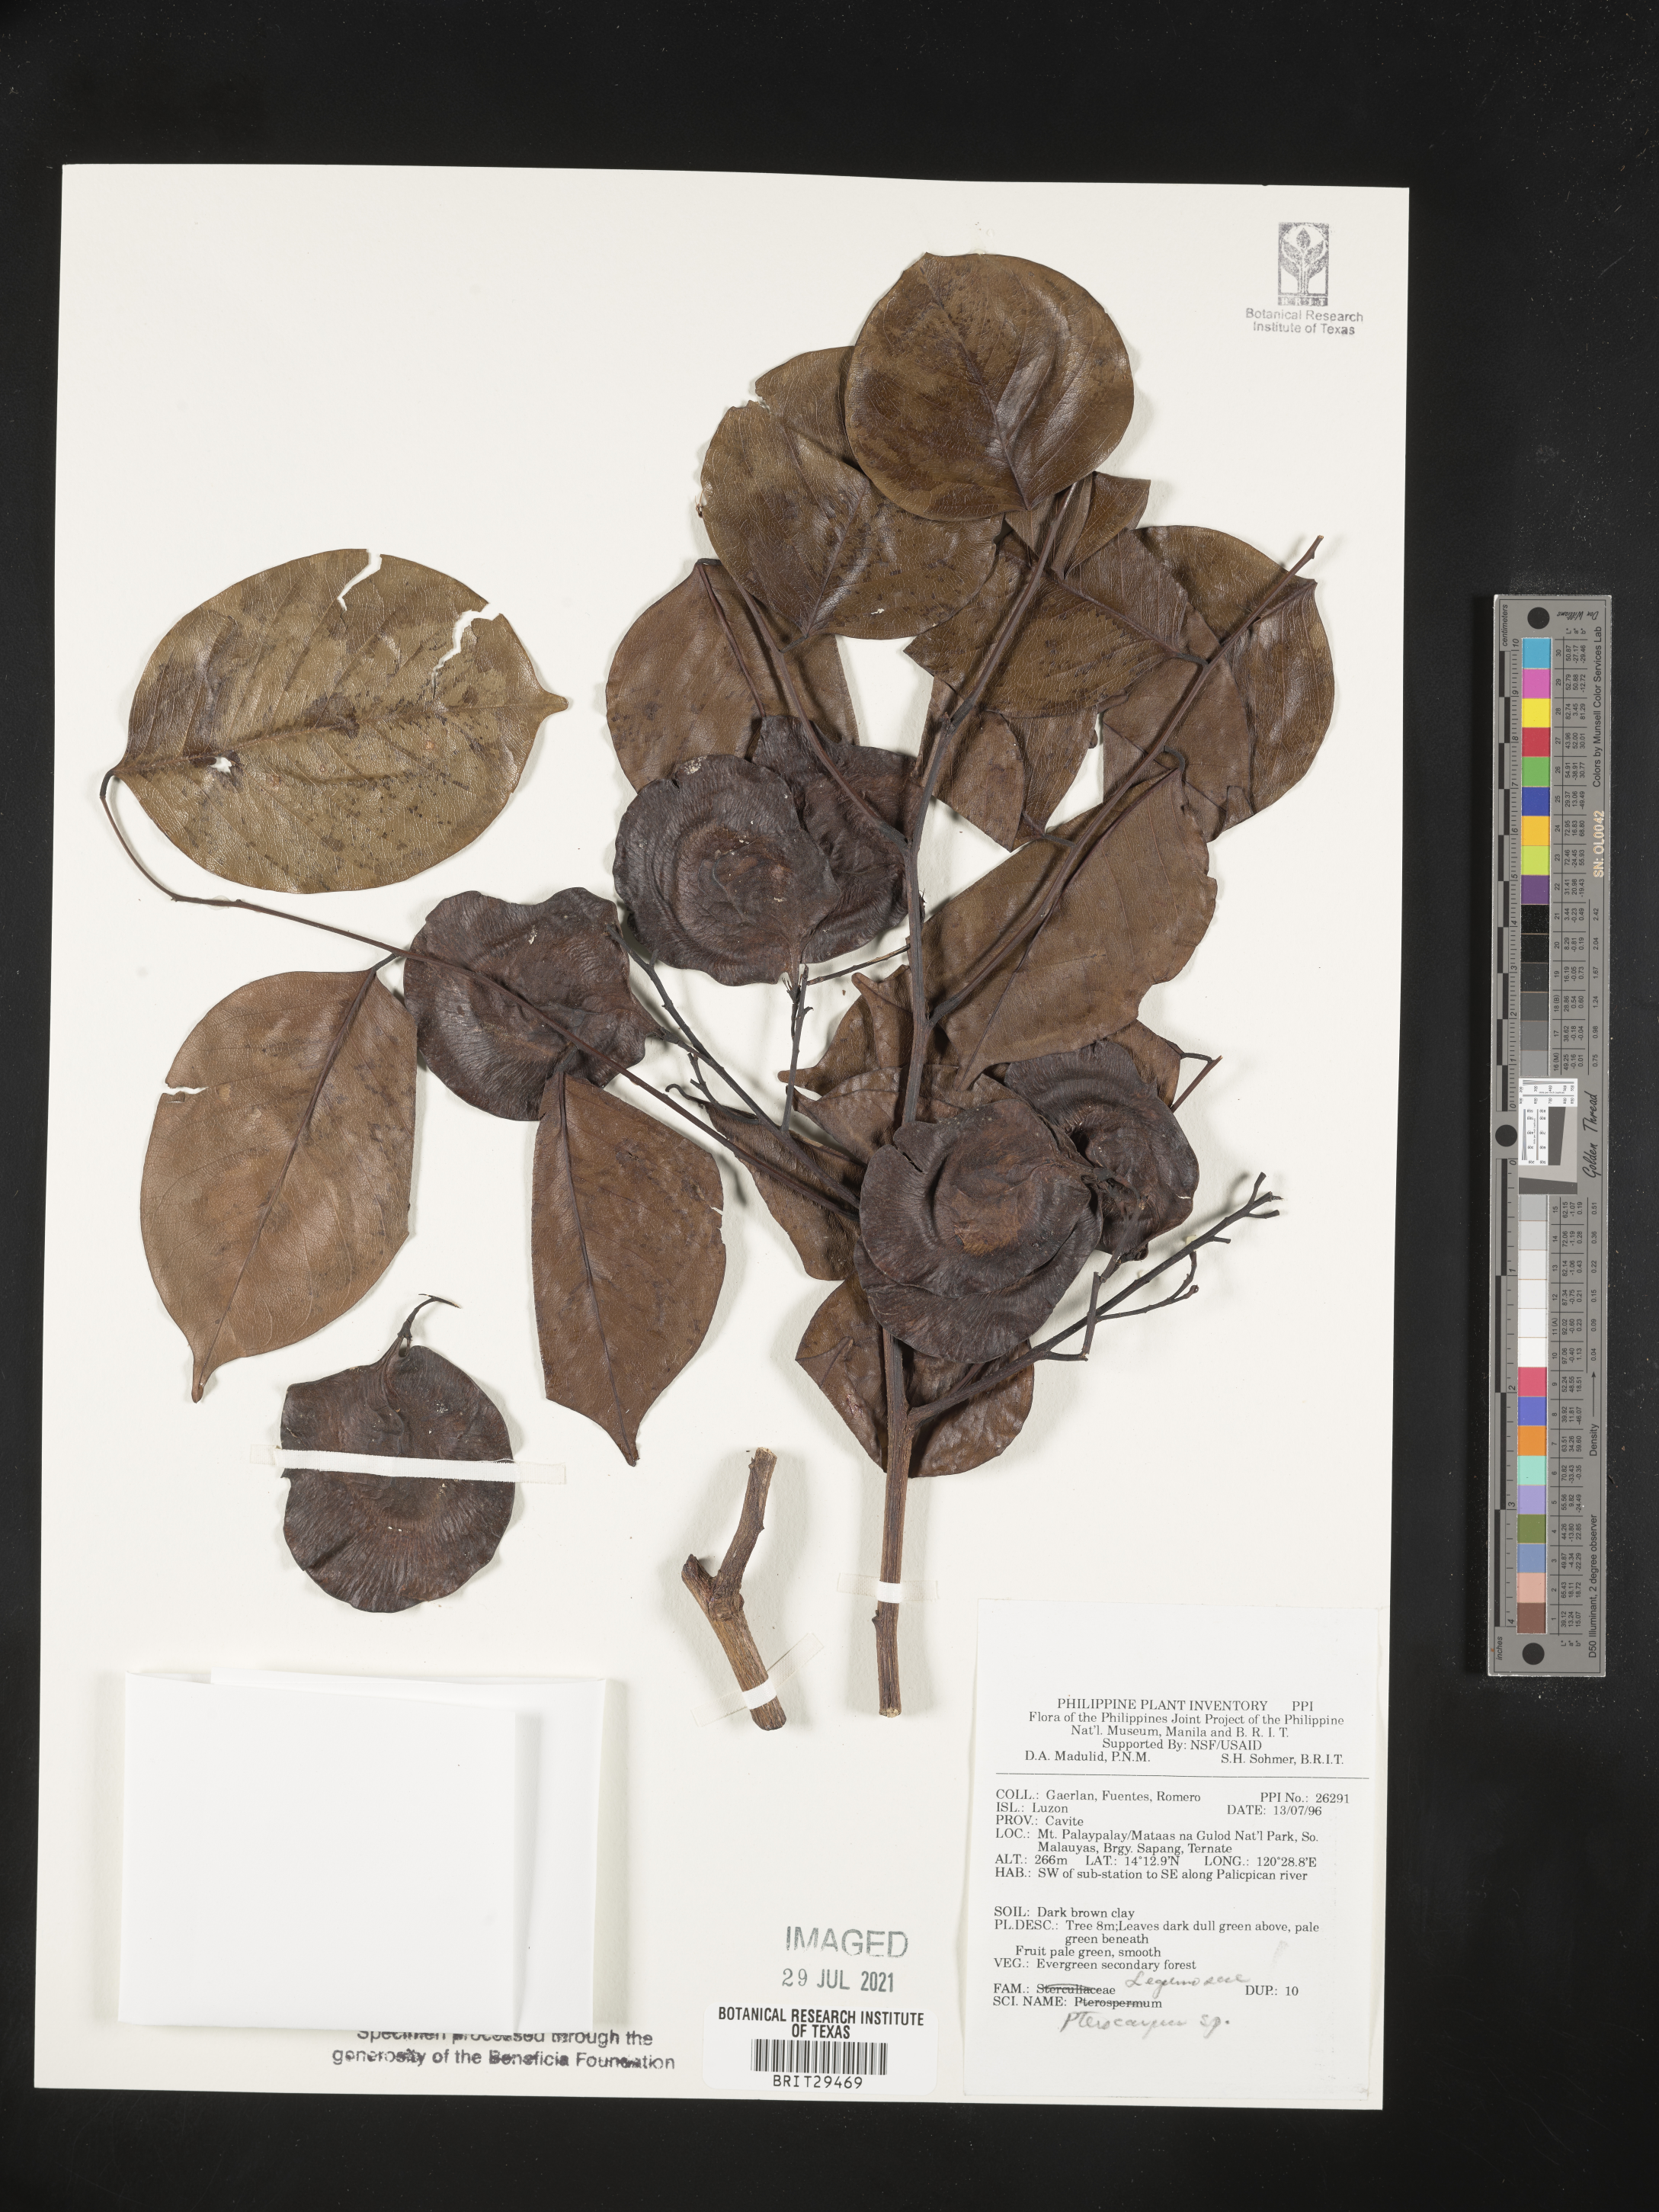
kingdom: Plantae
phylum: Tracheophyta
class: Magnoliopsida
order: Fabales
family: Fabaceae
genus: Pterocarpus
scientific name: Pterocarpus
